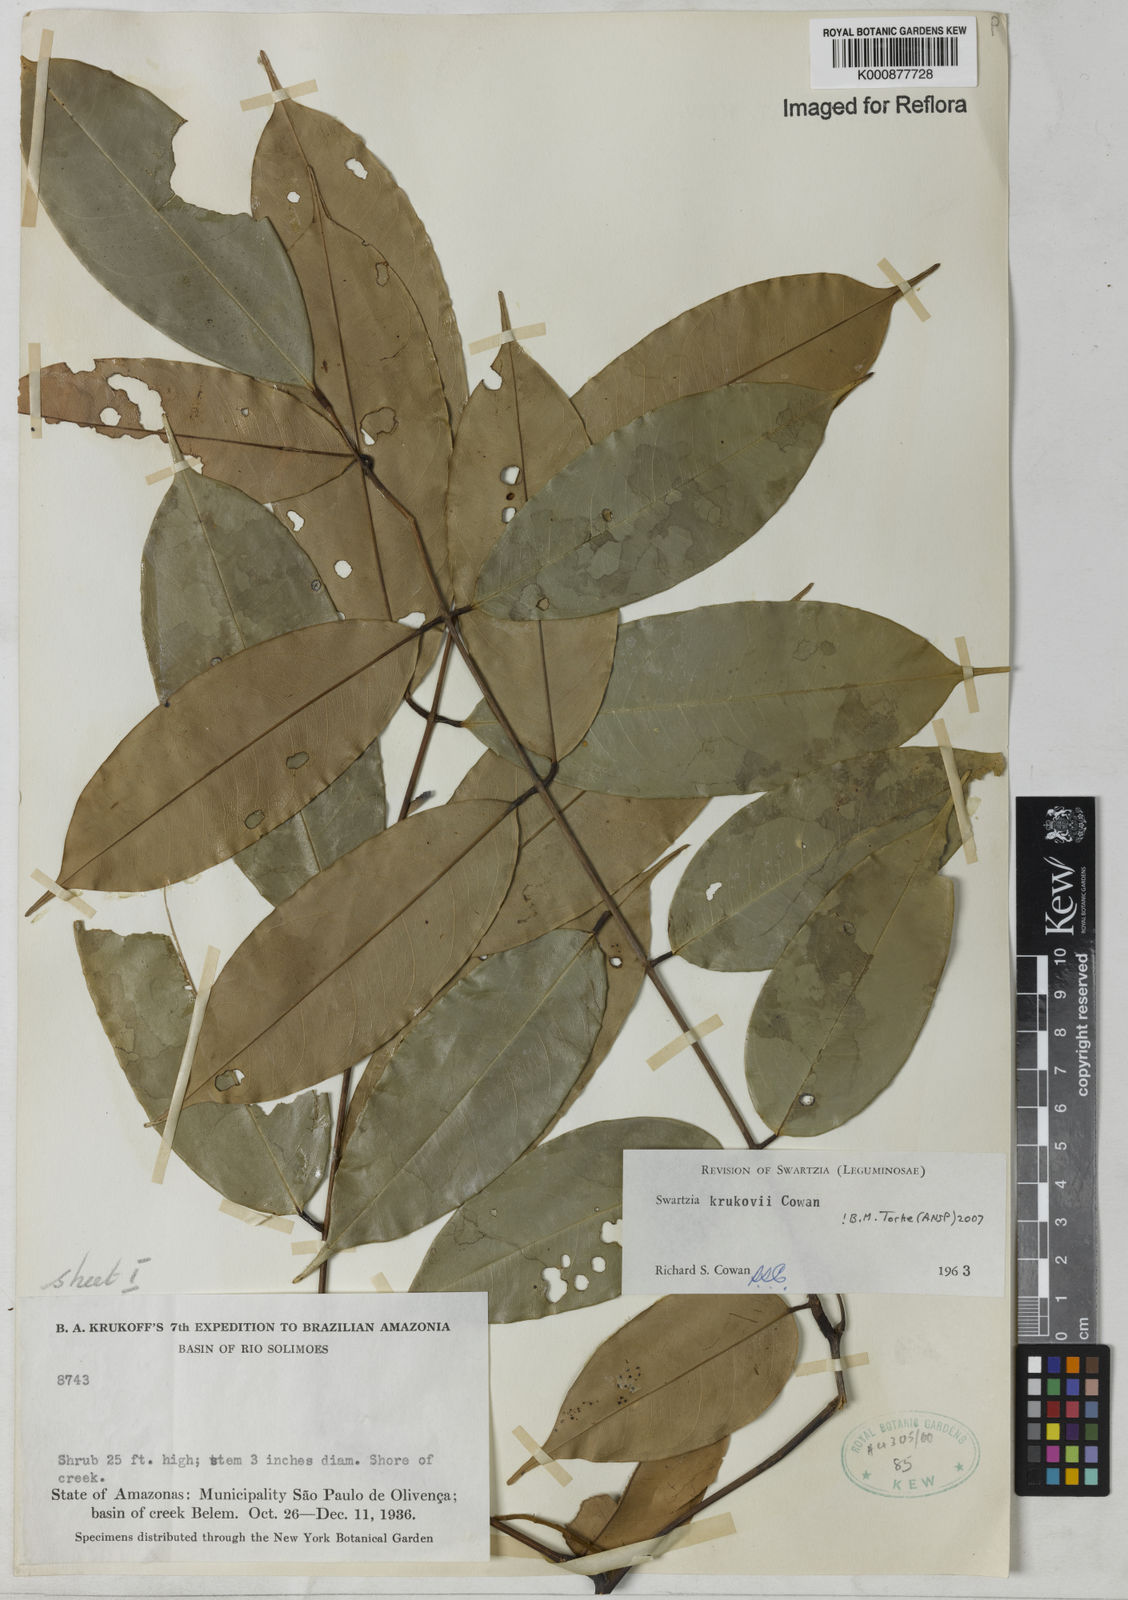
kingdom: Plantae
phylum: Tracheophyta
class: Magnoliopsida
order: Fabales
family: Fabaceae
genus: Swartzia
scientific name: Swartzia krukovii
